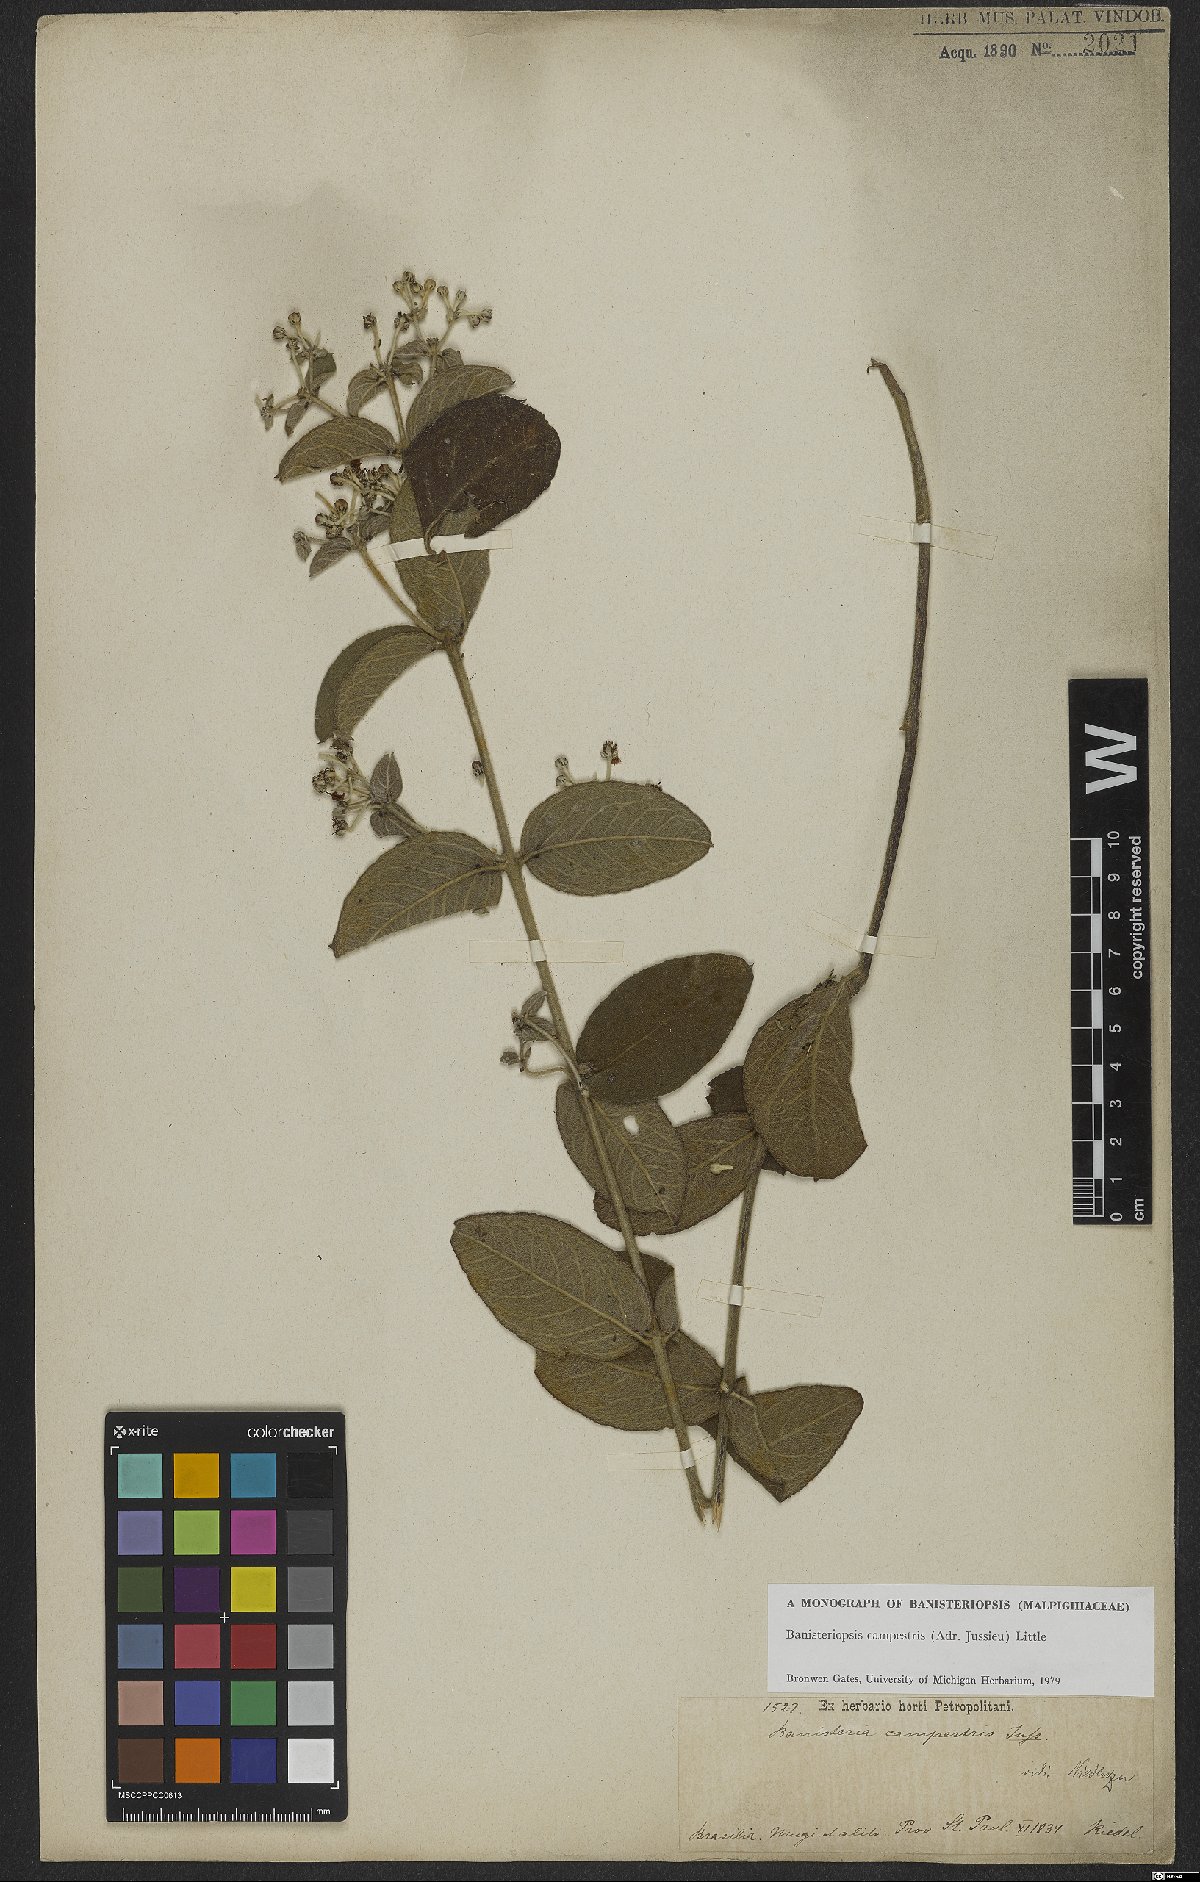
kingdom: Plantae
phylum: Tracheophyta
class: Magnoliopsida
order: Malpighiales
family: Malpighiaceae
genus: Banisteriopsis
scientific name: Banisteriopsis campestris
